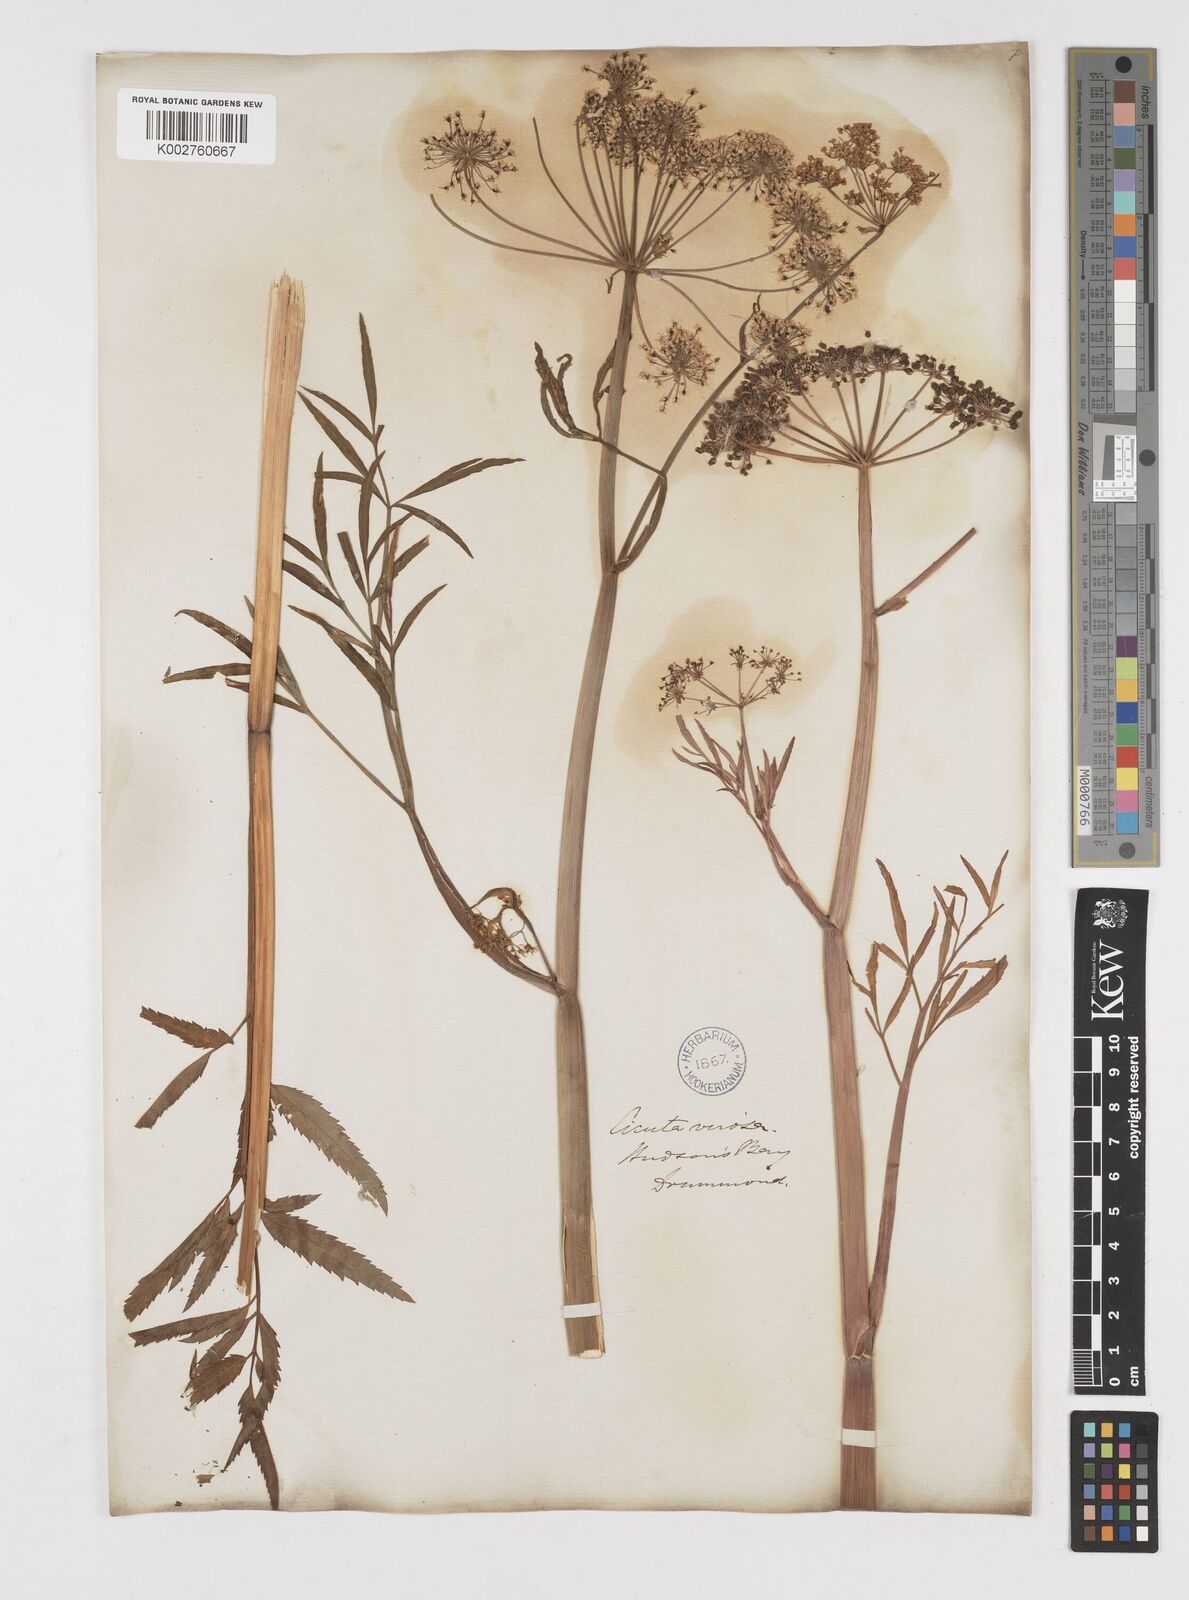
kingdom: Plantae
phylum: Tracheophyta
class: Magnoliopsida
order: Apiales
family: Apiaceae
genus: Cicuta
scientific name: Cicuta virosa
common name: Cowbane
